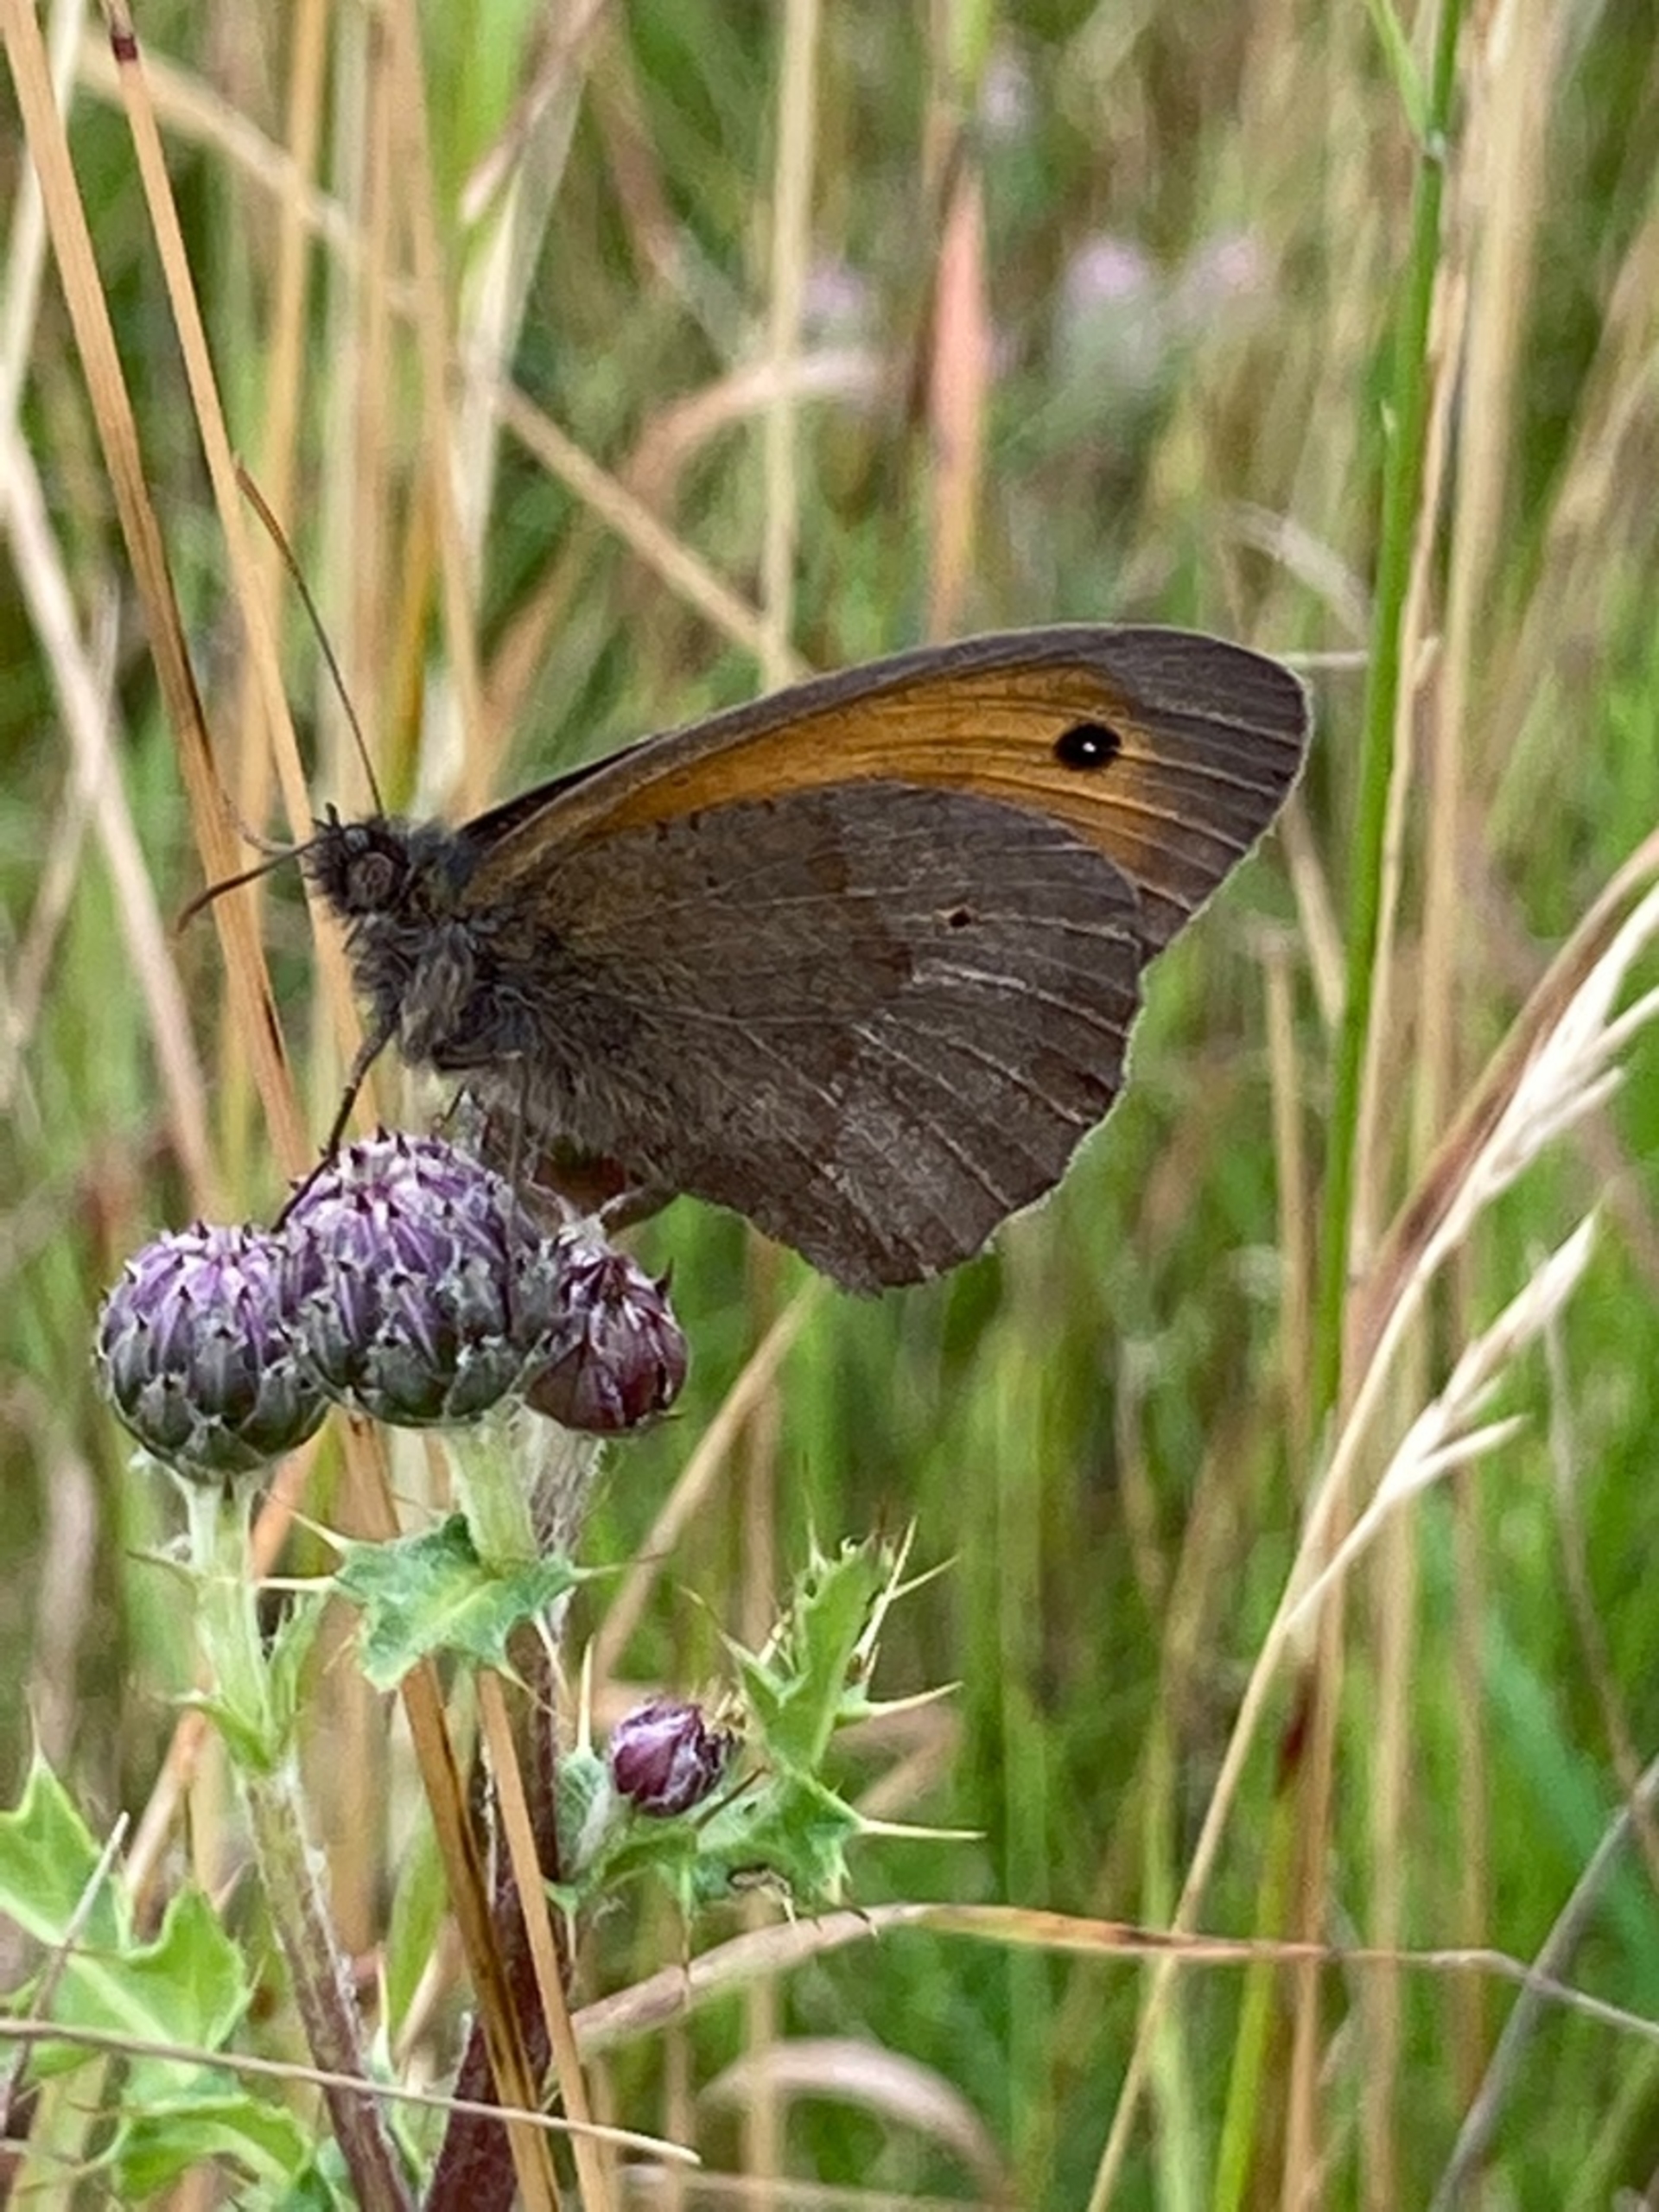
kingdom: Animalia
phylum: Arthropoda
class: Insecta
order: Lepidoptera
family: Nymphalidae
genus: Maniola
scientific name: Maniola jurtina
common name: Græsrandøje
